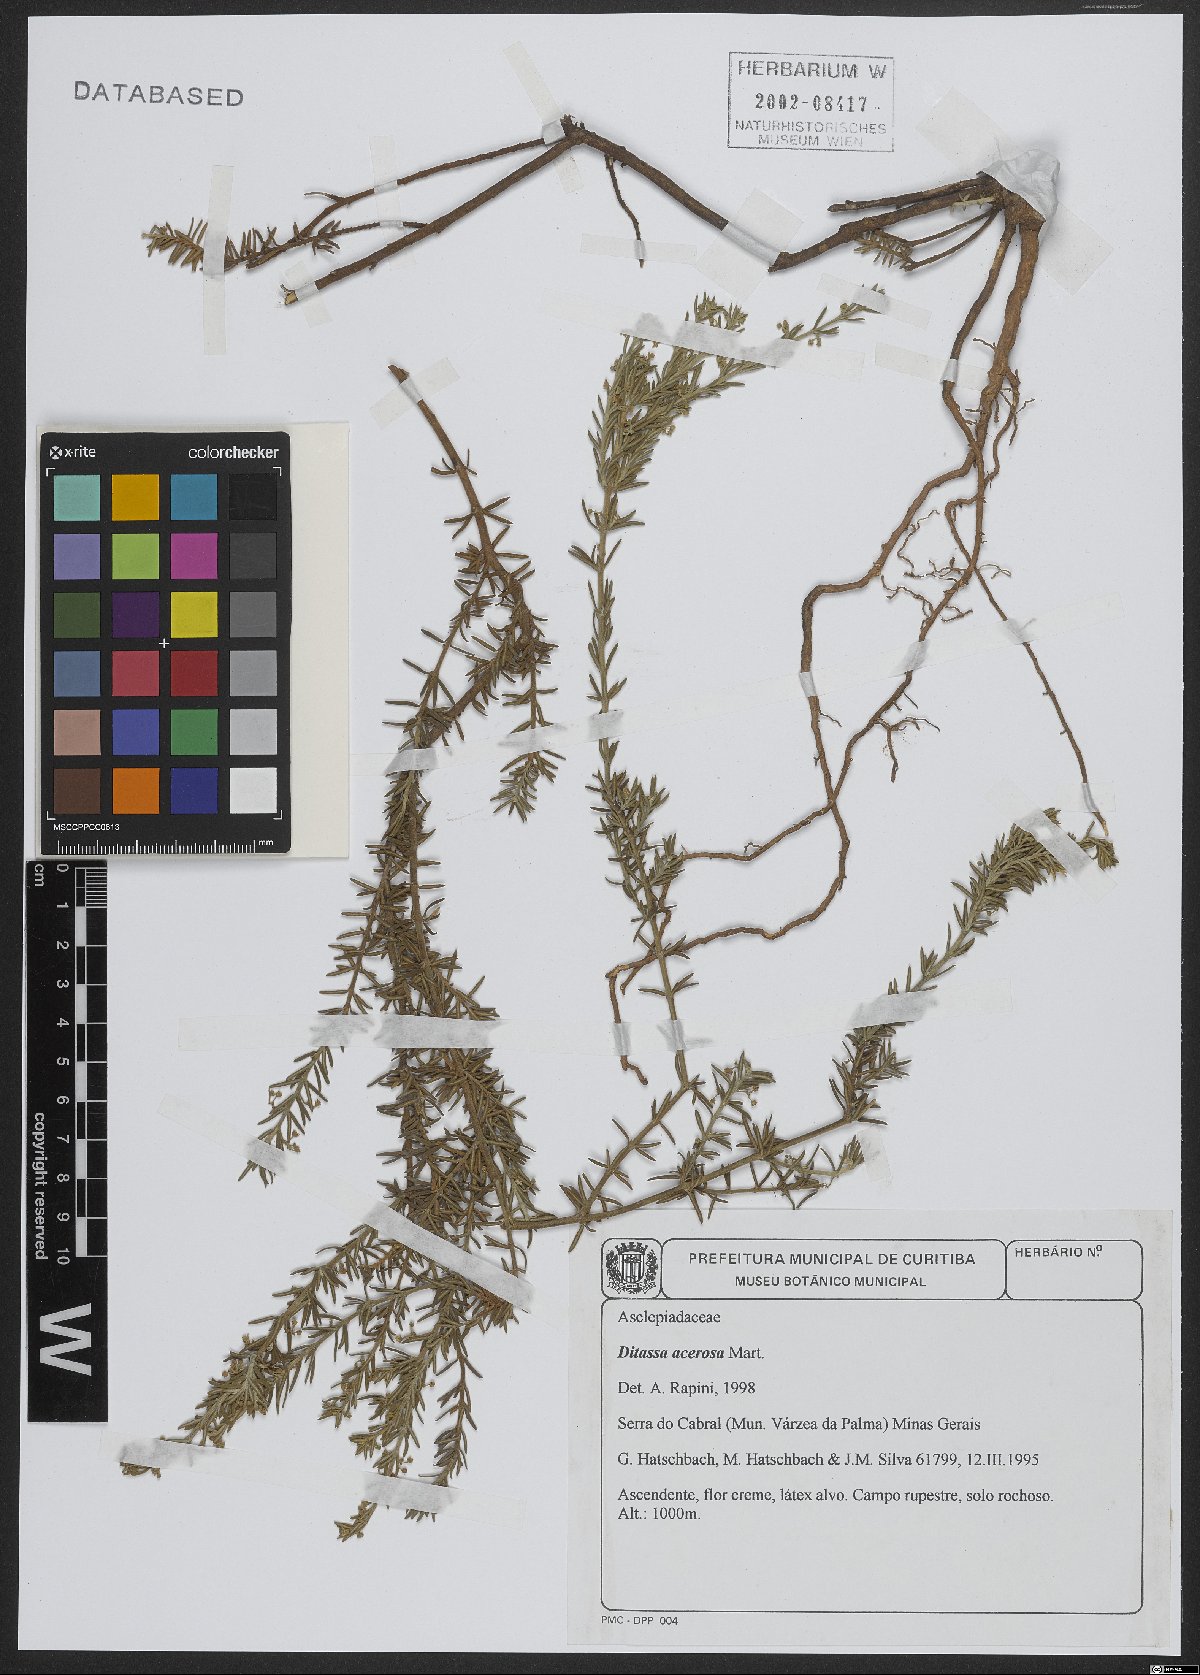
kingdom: Plantae
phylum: Tracheophyta
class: Magnoliopsida
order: Gentianales
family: Apocynaceae
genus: Minaria
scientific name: Minaria acerosa
